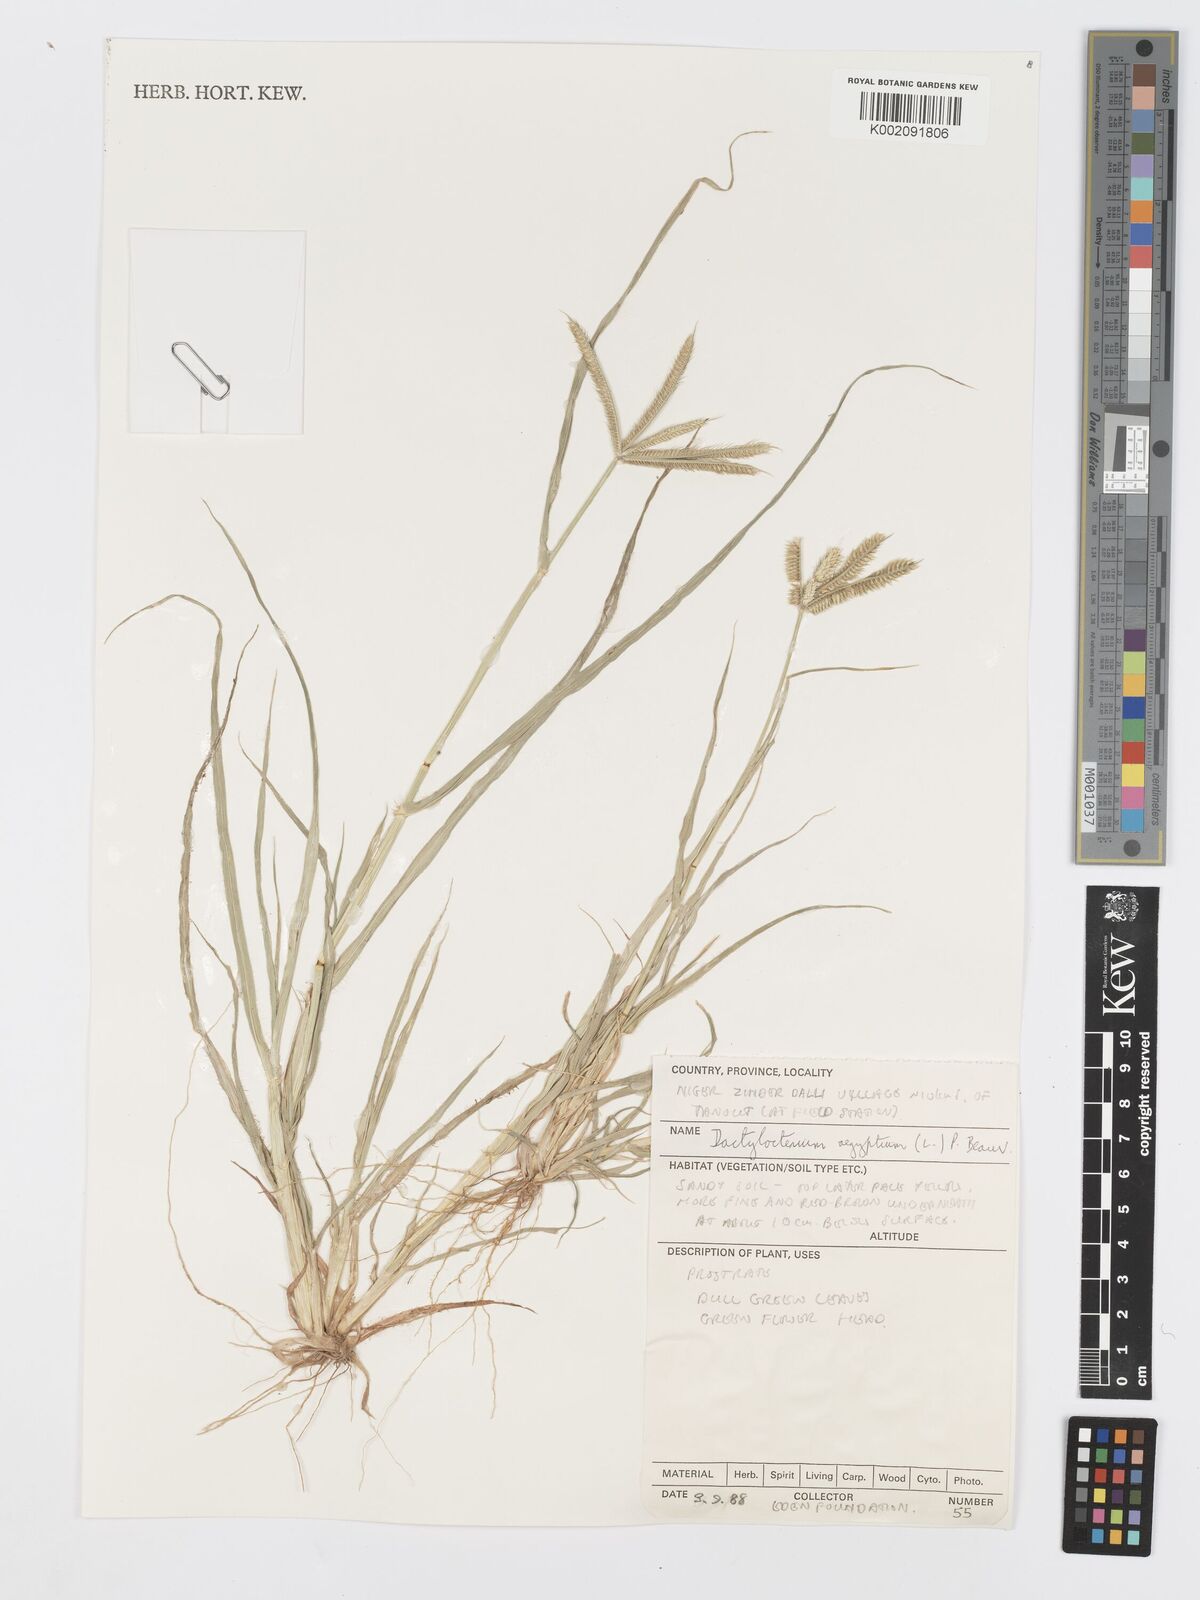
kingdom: Plantae
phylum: Tracheophyta
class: Liliopsida
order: Poales
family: Poaceae
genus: Dactyloctenium
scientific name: Dactyloctenium aegyptium
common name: Egyptian grass
